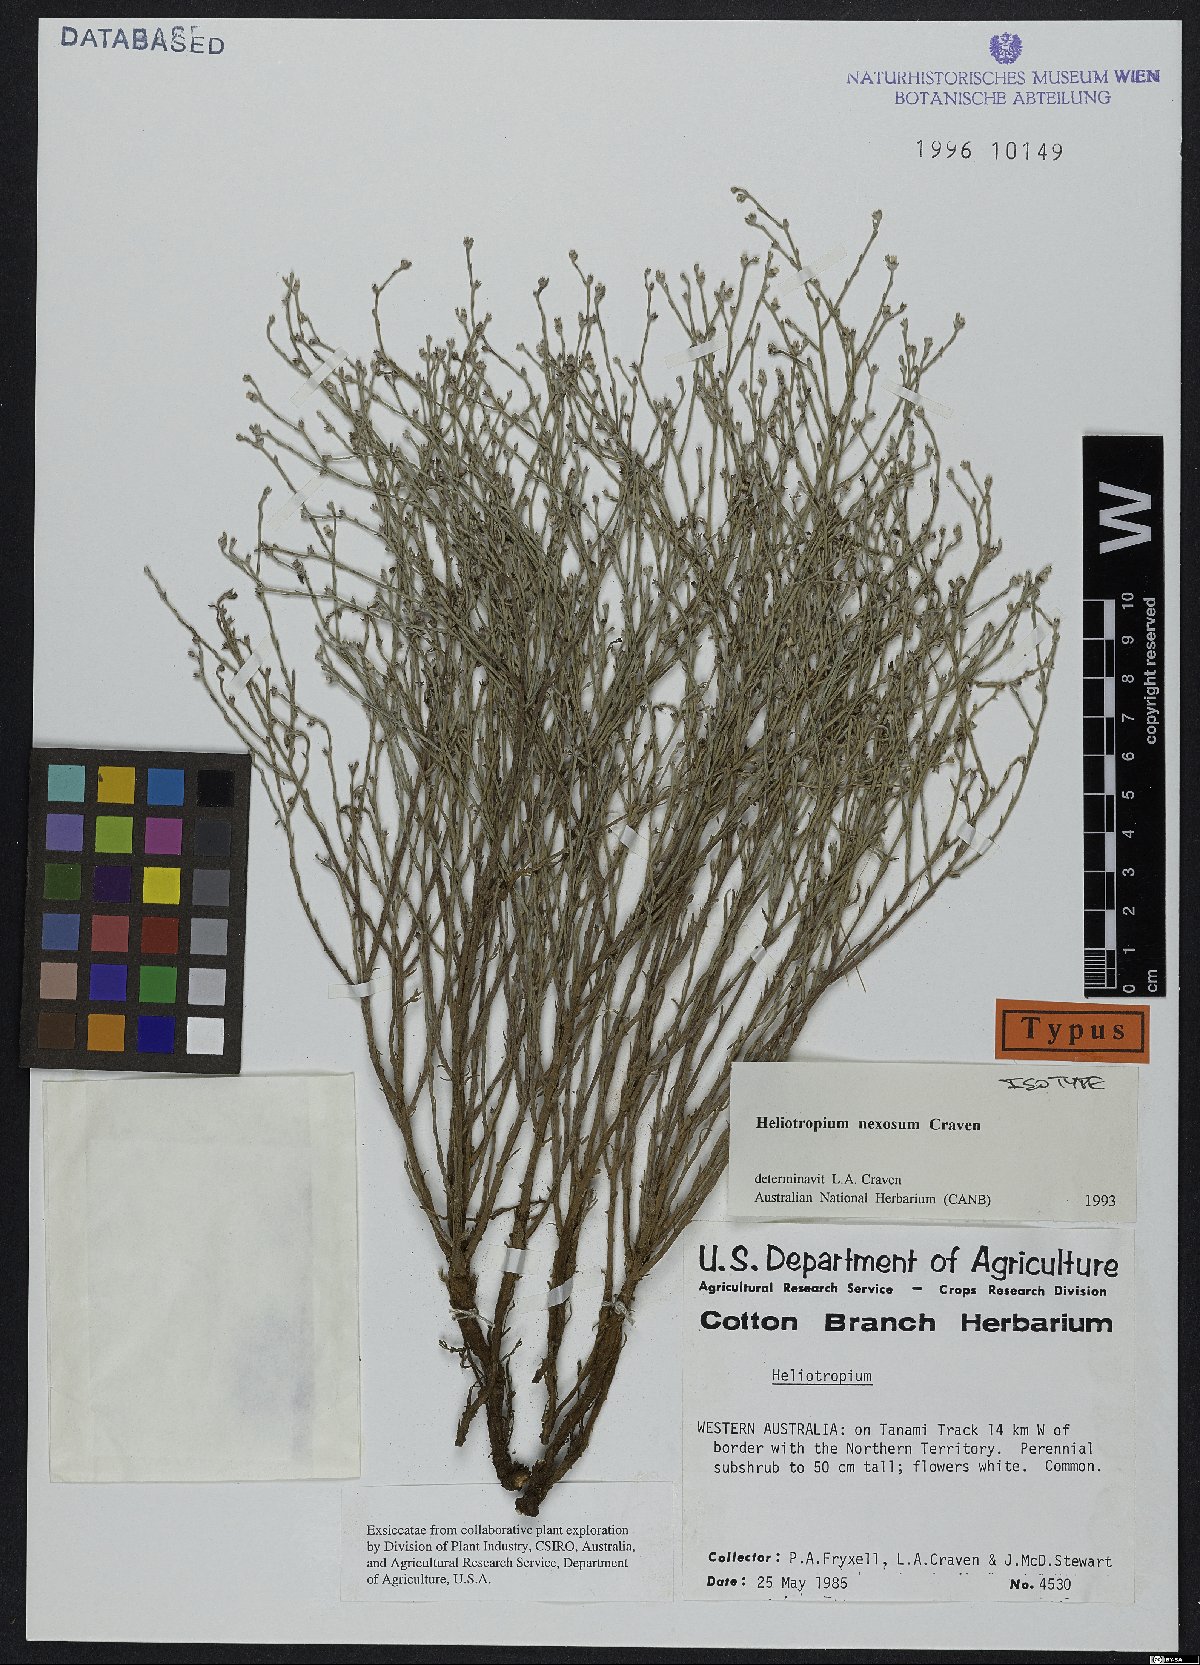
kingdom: Plantae
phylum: Tracheophyta
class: Magnoliopsida
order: Boraginales
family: Heliotropiaceae
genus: Euploca
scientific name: Euploca nexosa
